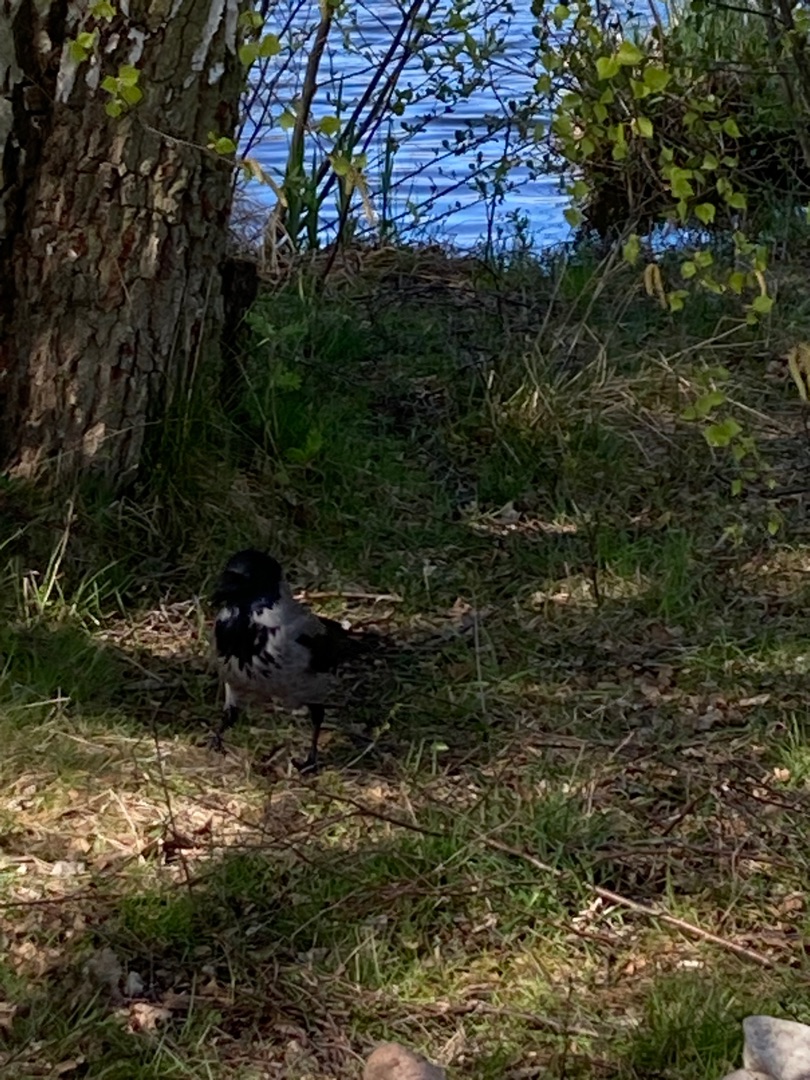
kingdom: Animalia
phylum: Chordata
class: Aves
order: Passeriformes
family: Corvidae
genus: Corvus
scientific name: Corvus cornix
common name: Gråkrage
